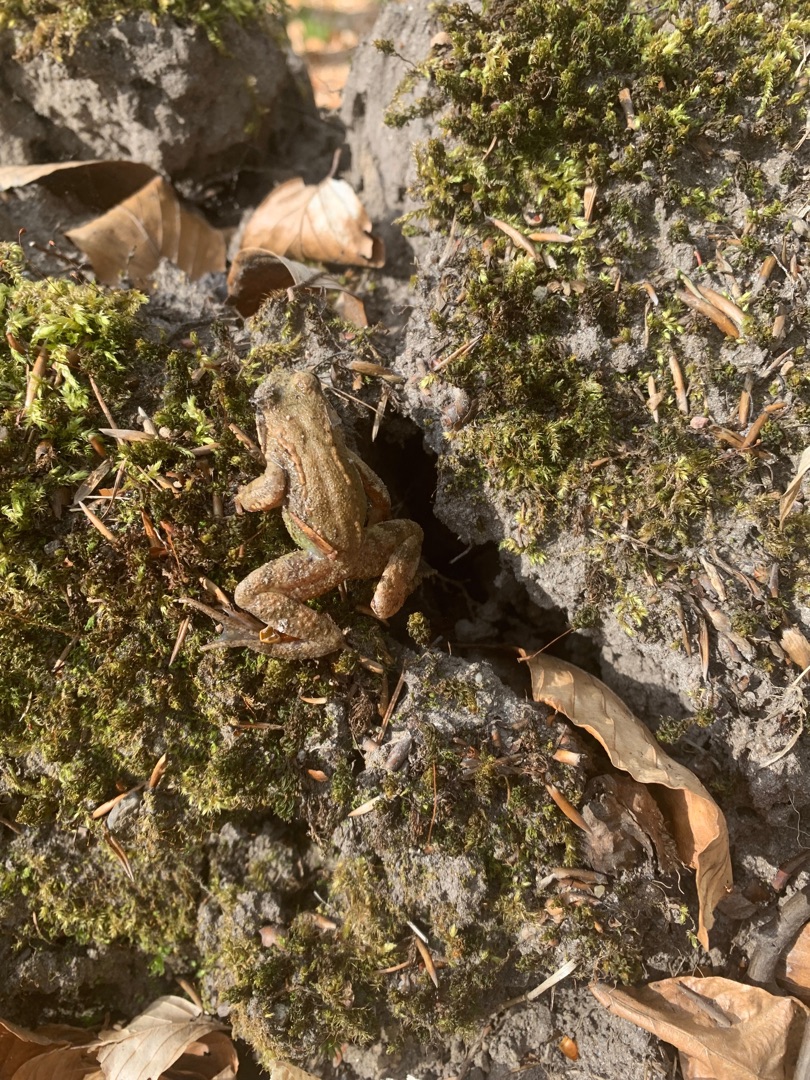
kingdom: Animalia
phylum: Chordata
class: Amphibia
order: Anura
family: Ranidae
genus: Rana
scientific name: Rana temporaria
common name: Butsnudet frø
